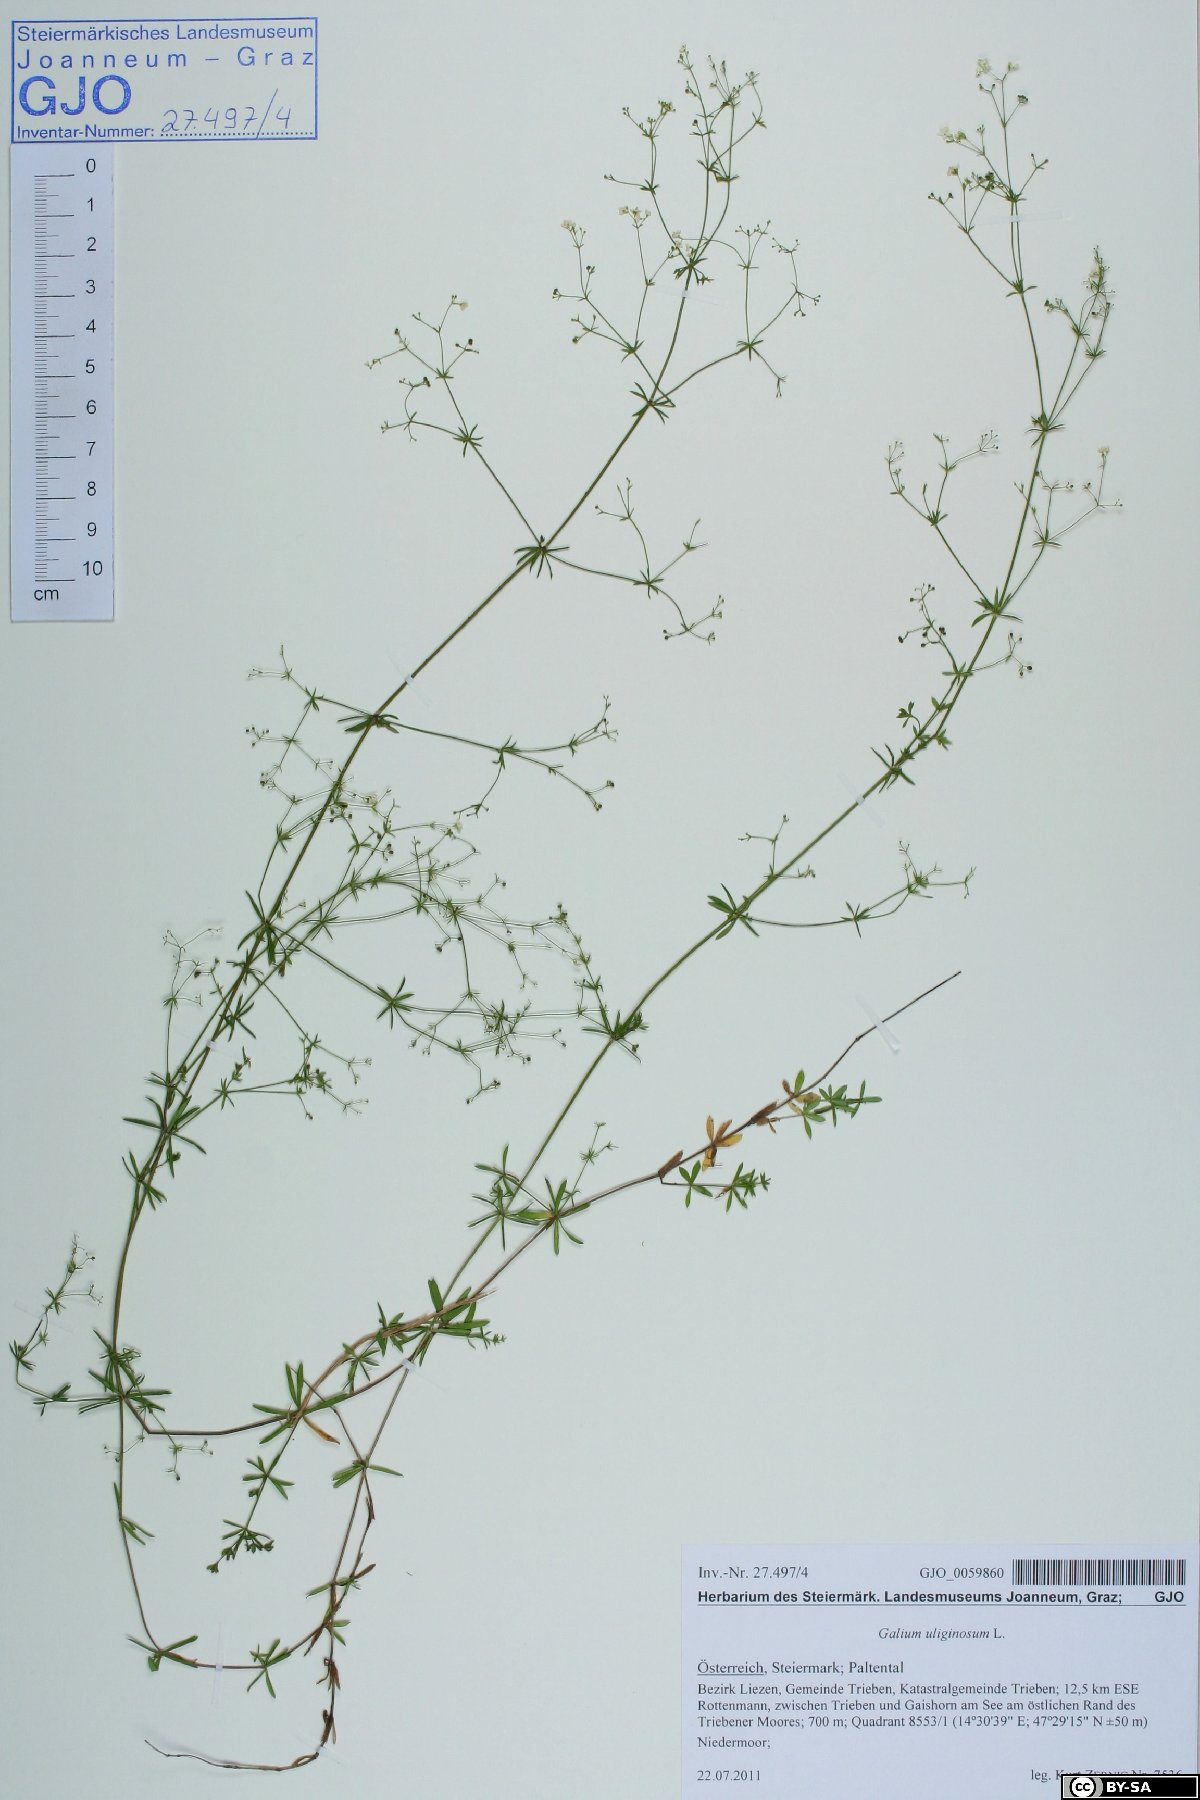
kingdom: Plantae
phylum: Tracheophyta
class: Magnoliopsida
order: Gentianales
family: Rubiaceae
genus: Galium
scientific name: Galium uliginosum
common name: Fen bedstraw
